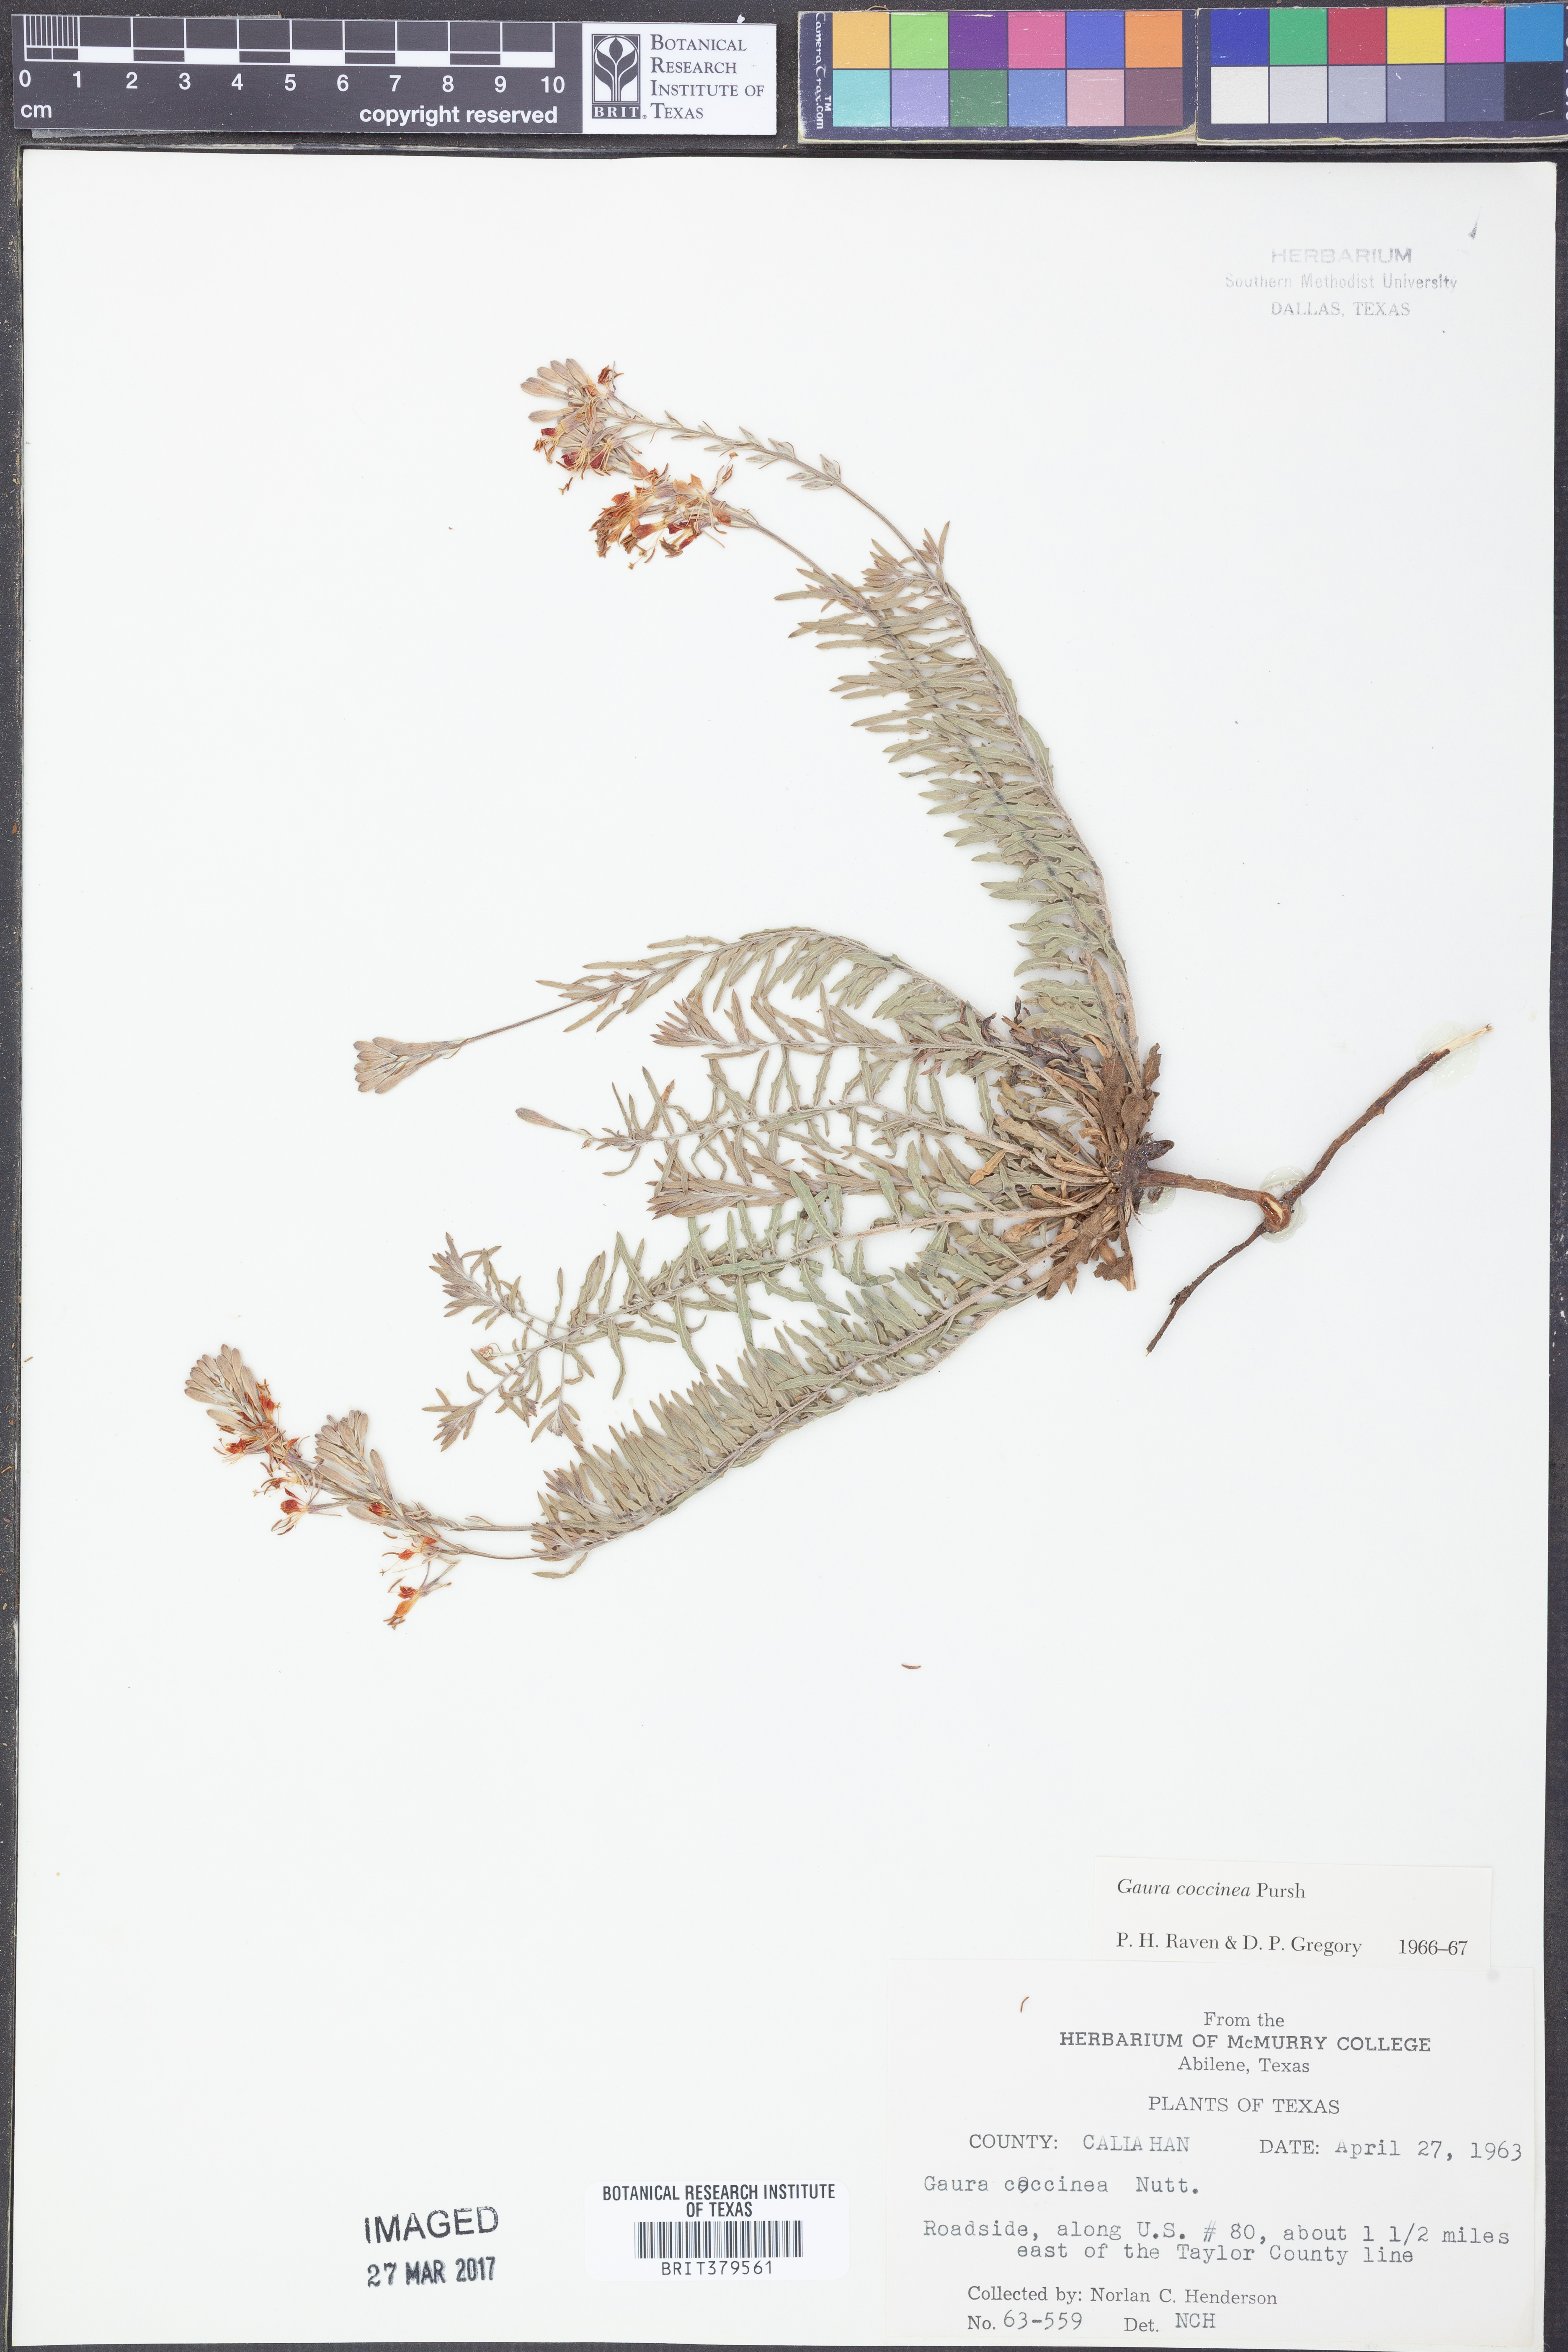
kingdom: Plantae
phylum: Tracheophyta
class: Magnoliopsida
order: Myrtales
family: Onagraceae
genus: Oenothera
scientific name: Oenothera suffrutescens
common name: Scarlet beeblossom
